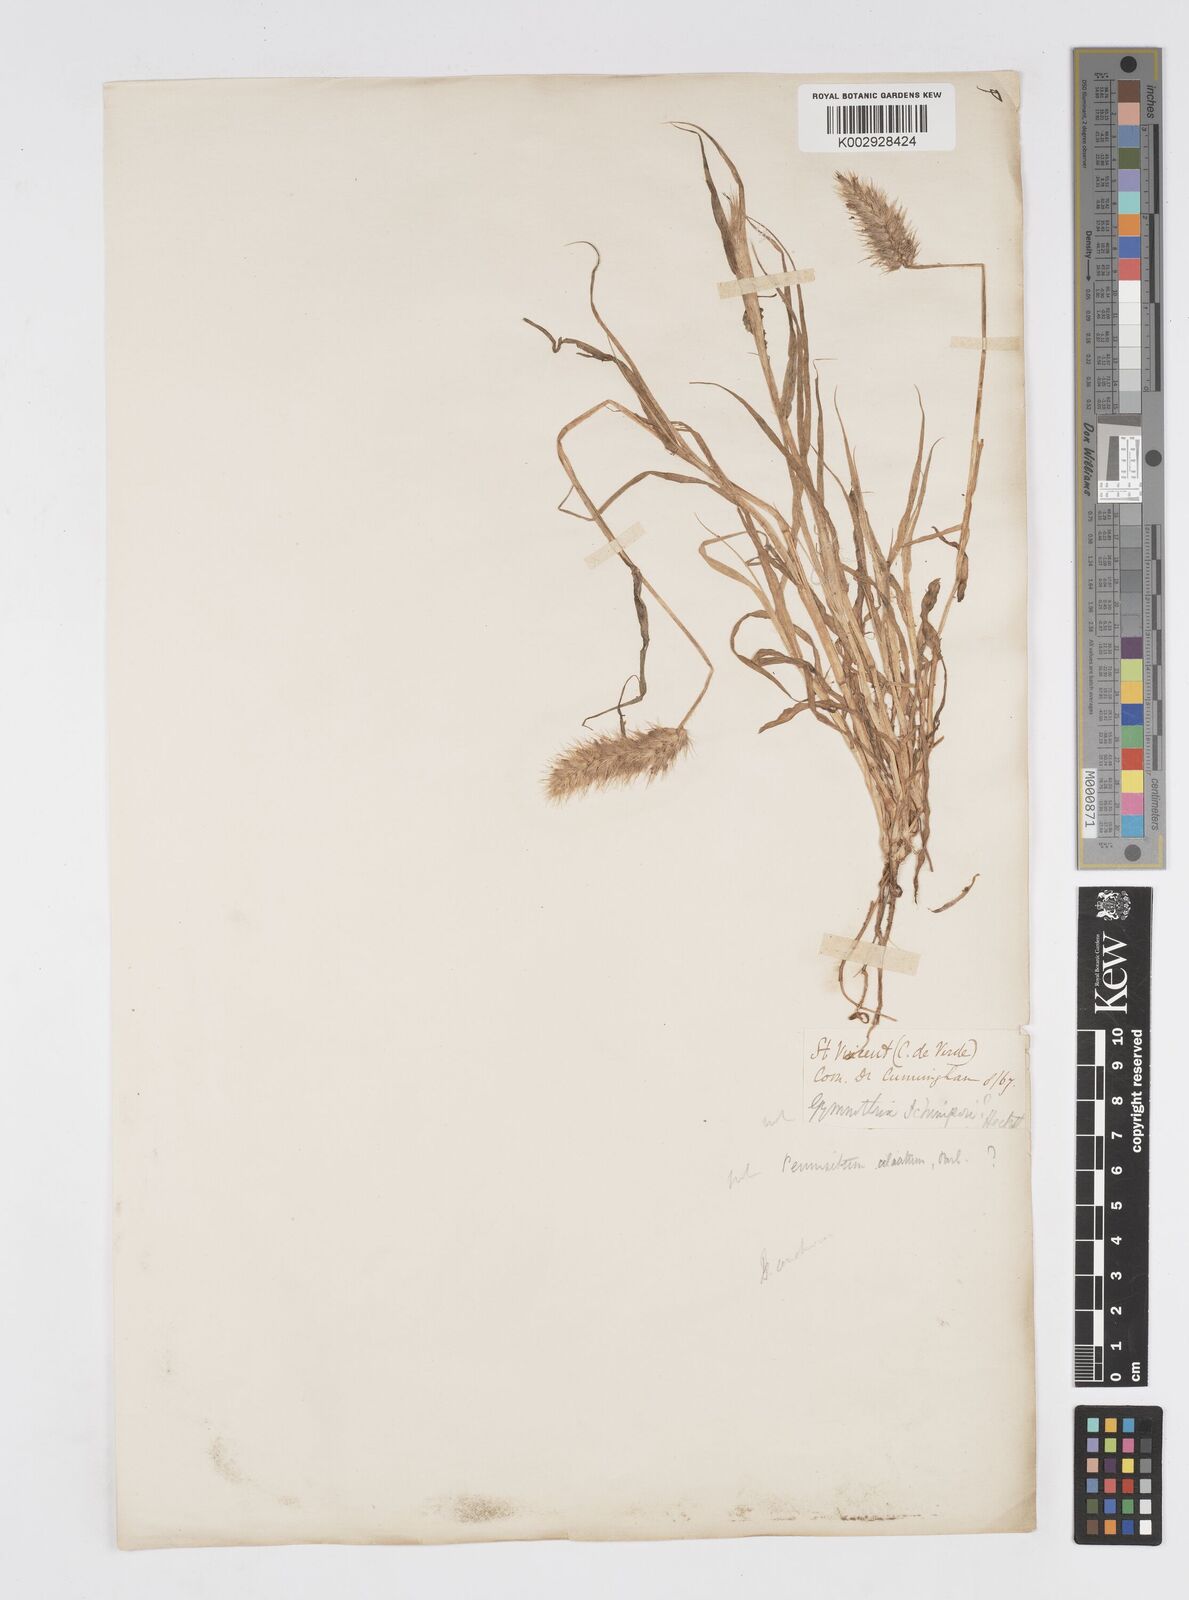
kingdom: Plantae
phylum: Tracheophyta
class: Liliopsida
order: Poales
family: Poaceae
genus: Cenchrus
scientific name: Cenchrus ciliaris
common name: Buffelgrass
